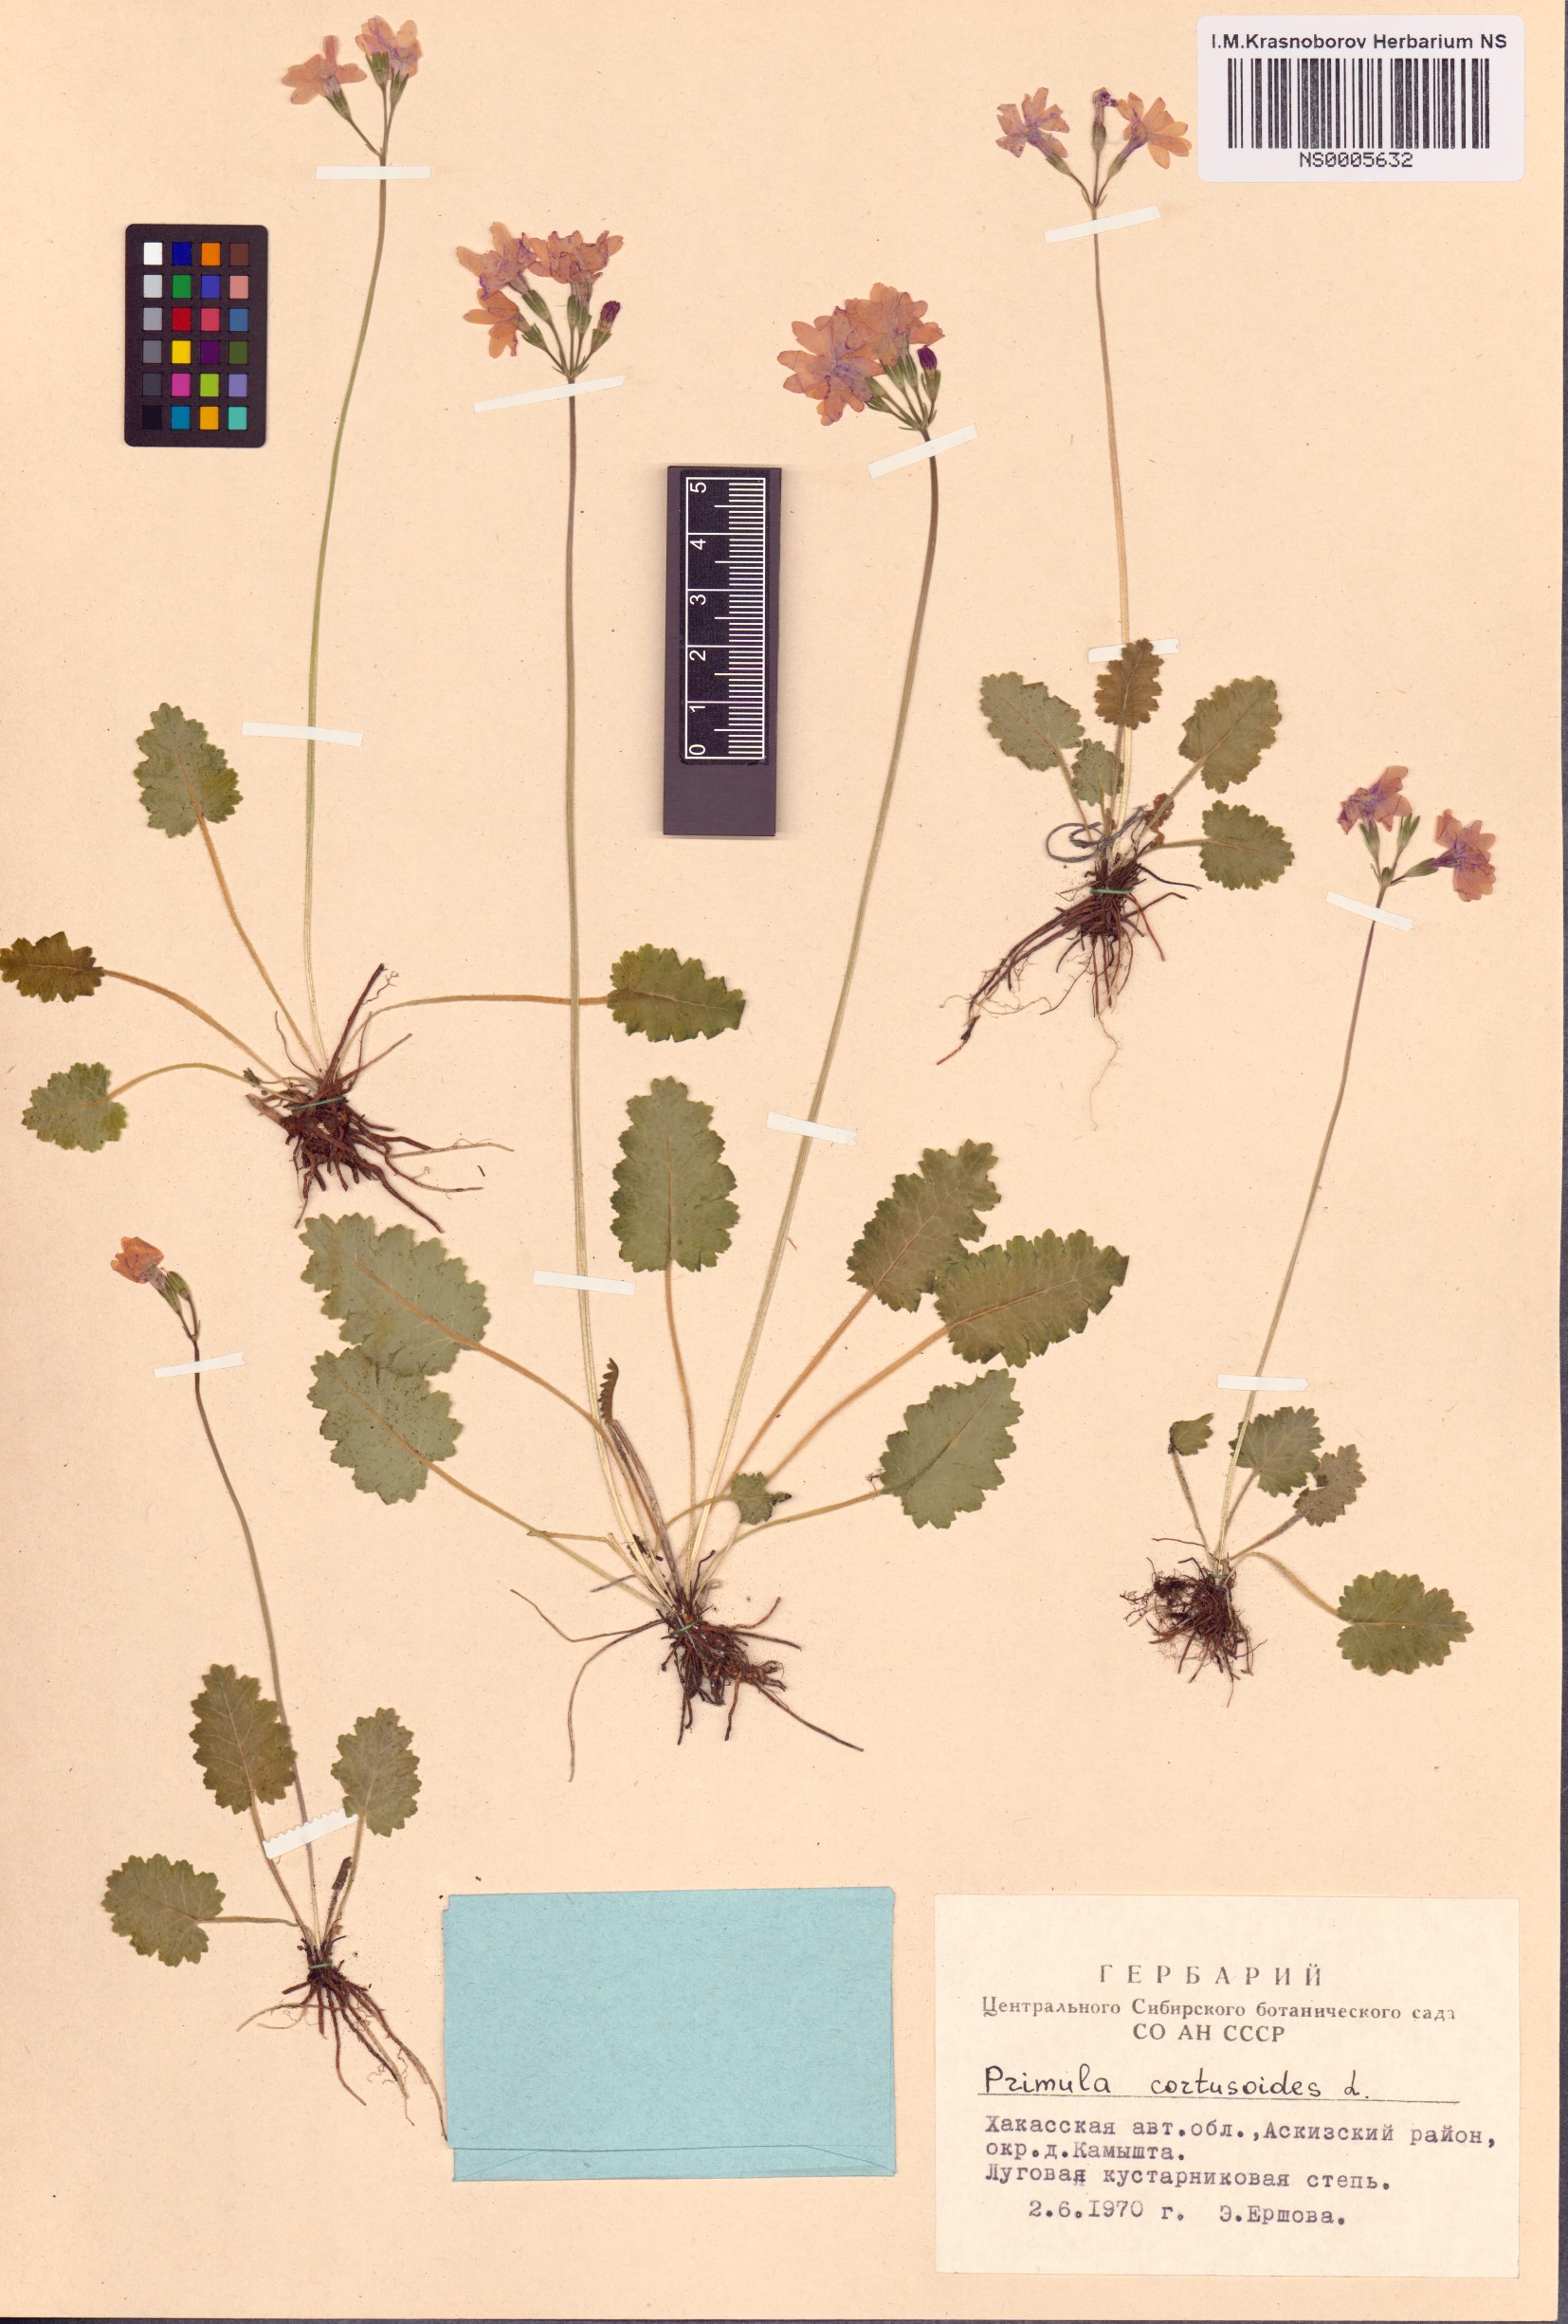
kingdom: Plantae
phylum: Tracheophyta
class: Magnoliopsida
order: Ericales
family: Primulaceae
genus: Primula
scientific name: Primula cortusoides
